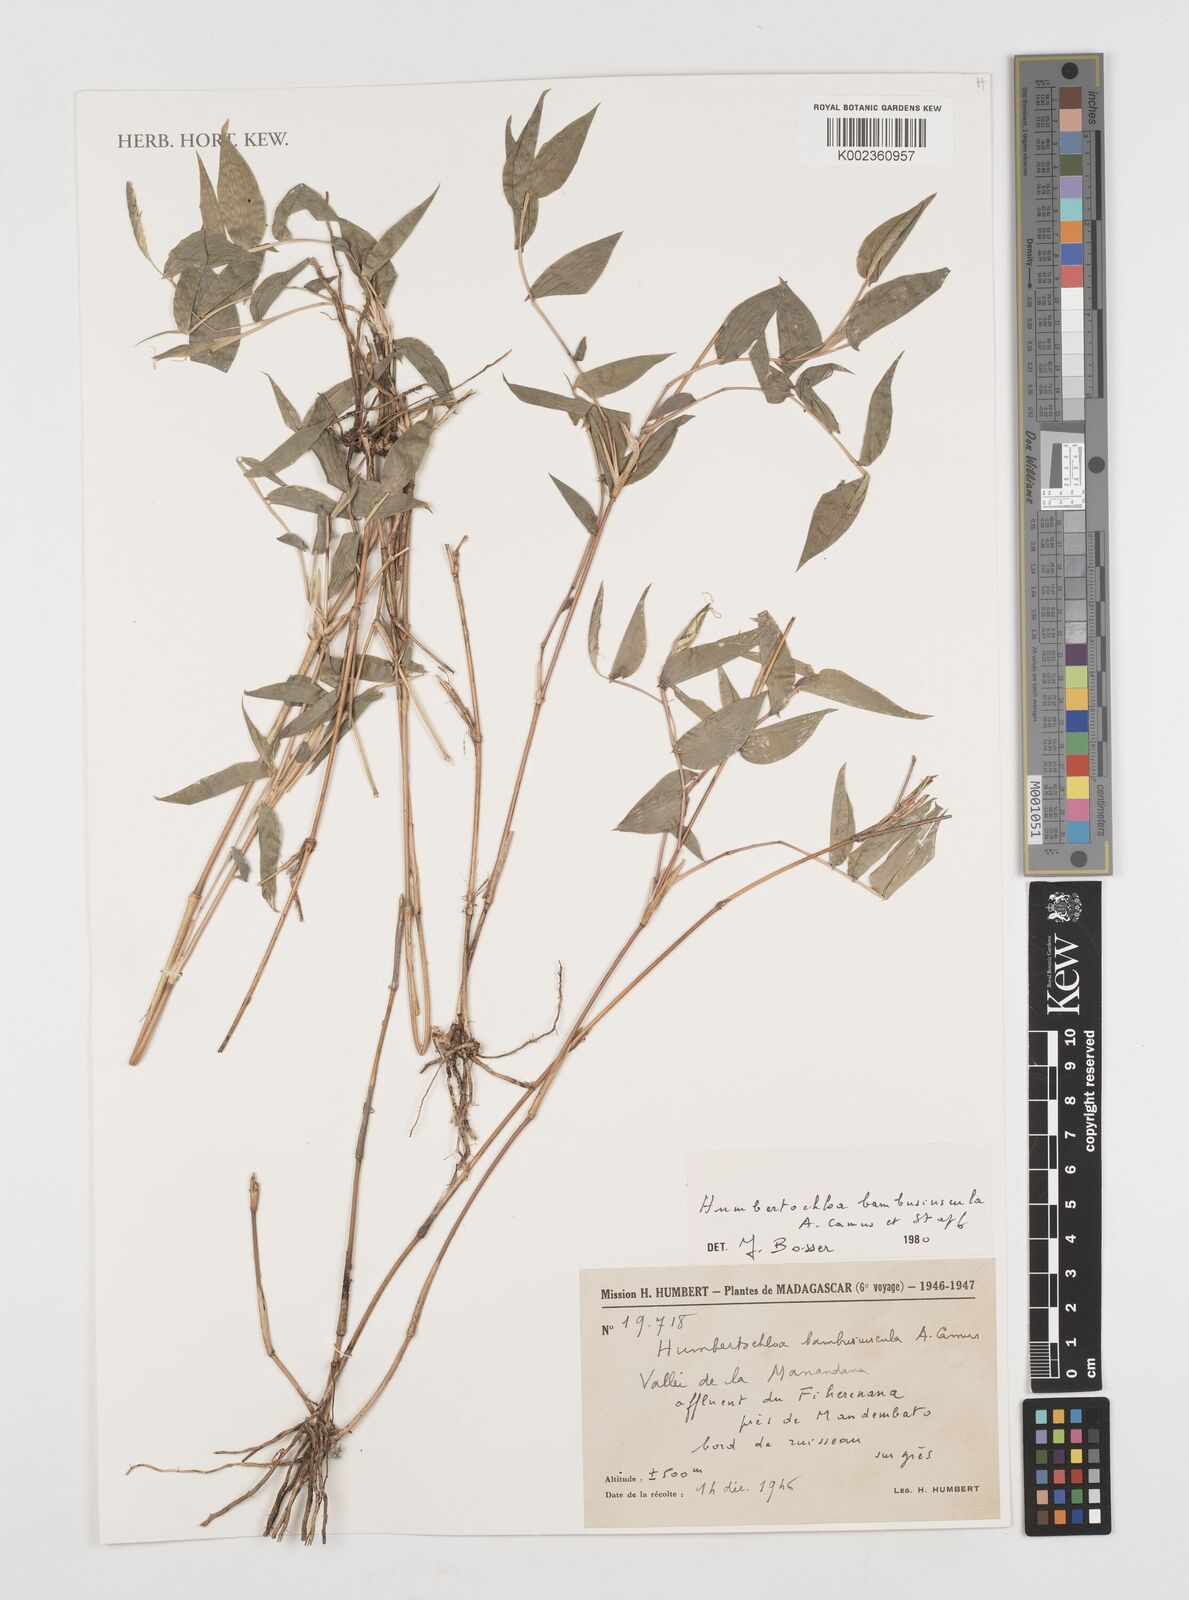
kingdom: Plantae
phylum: Tracheophyta
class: Liliopsida
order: Poales
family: Poaceae
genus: Humbertochloa
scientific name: Humbertochloa bambusiuscula
